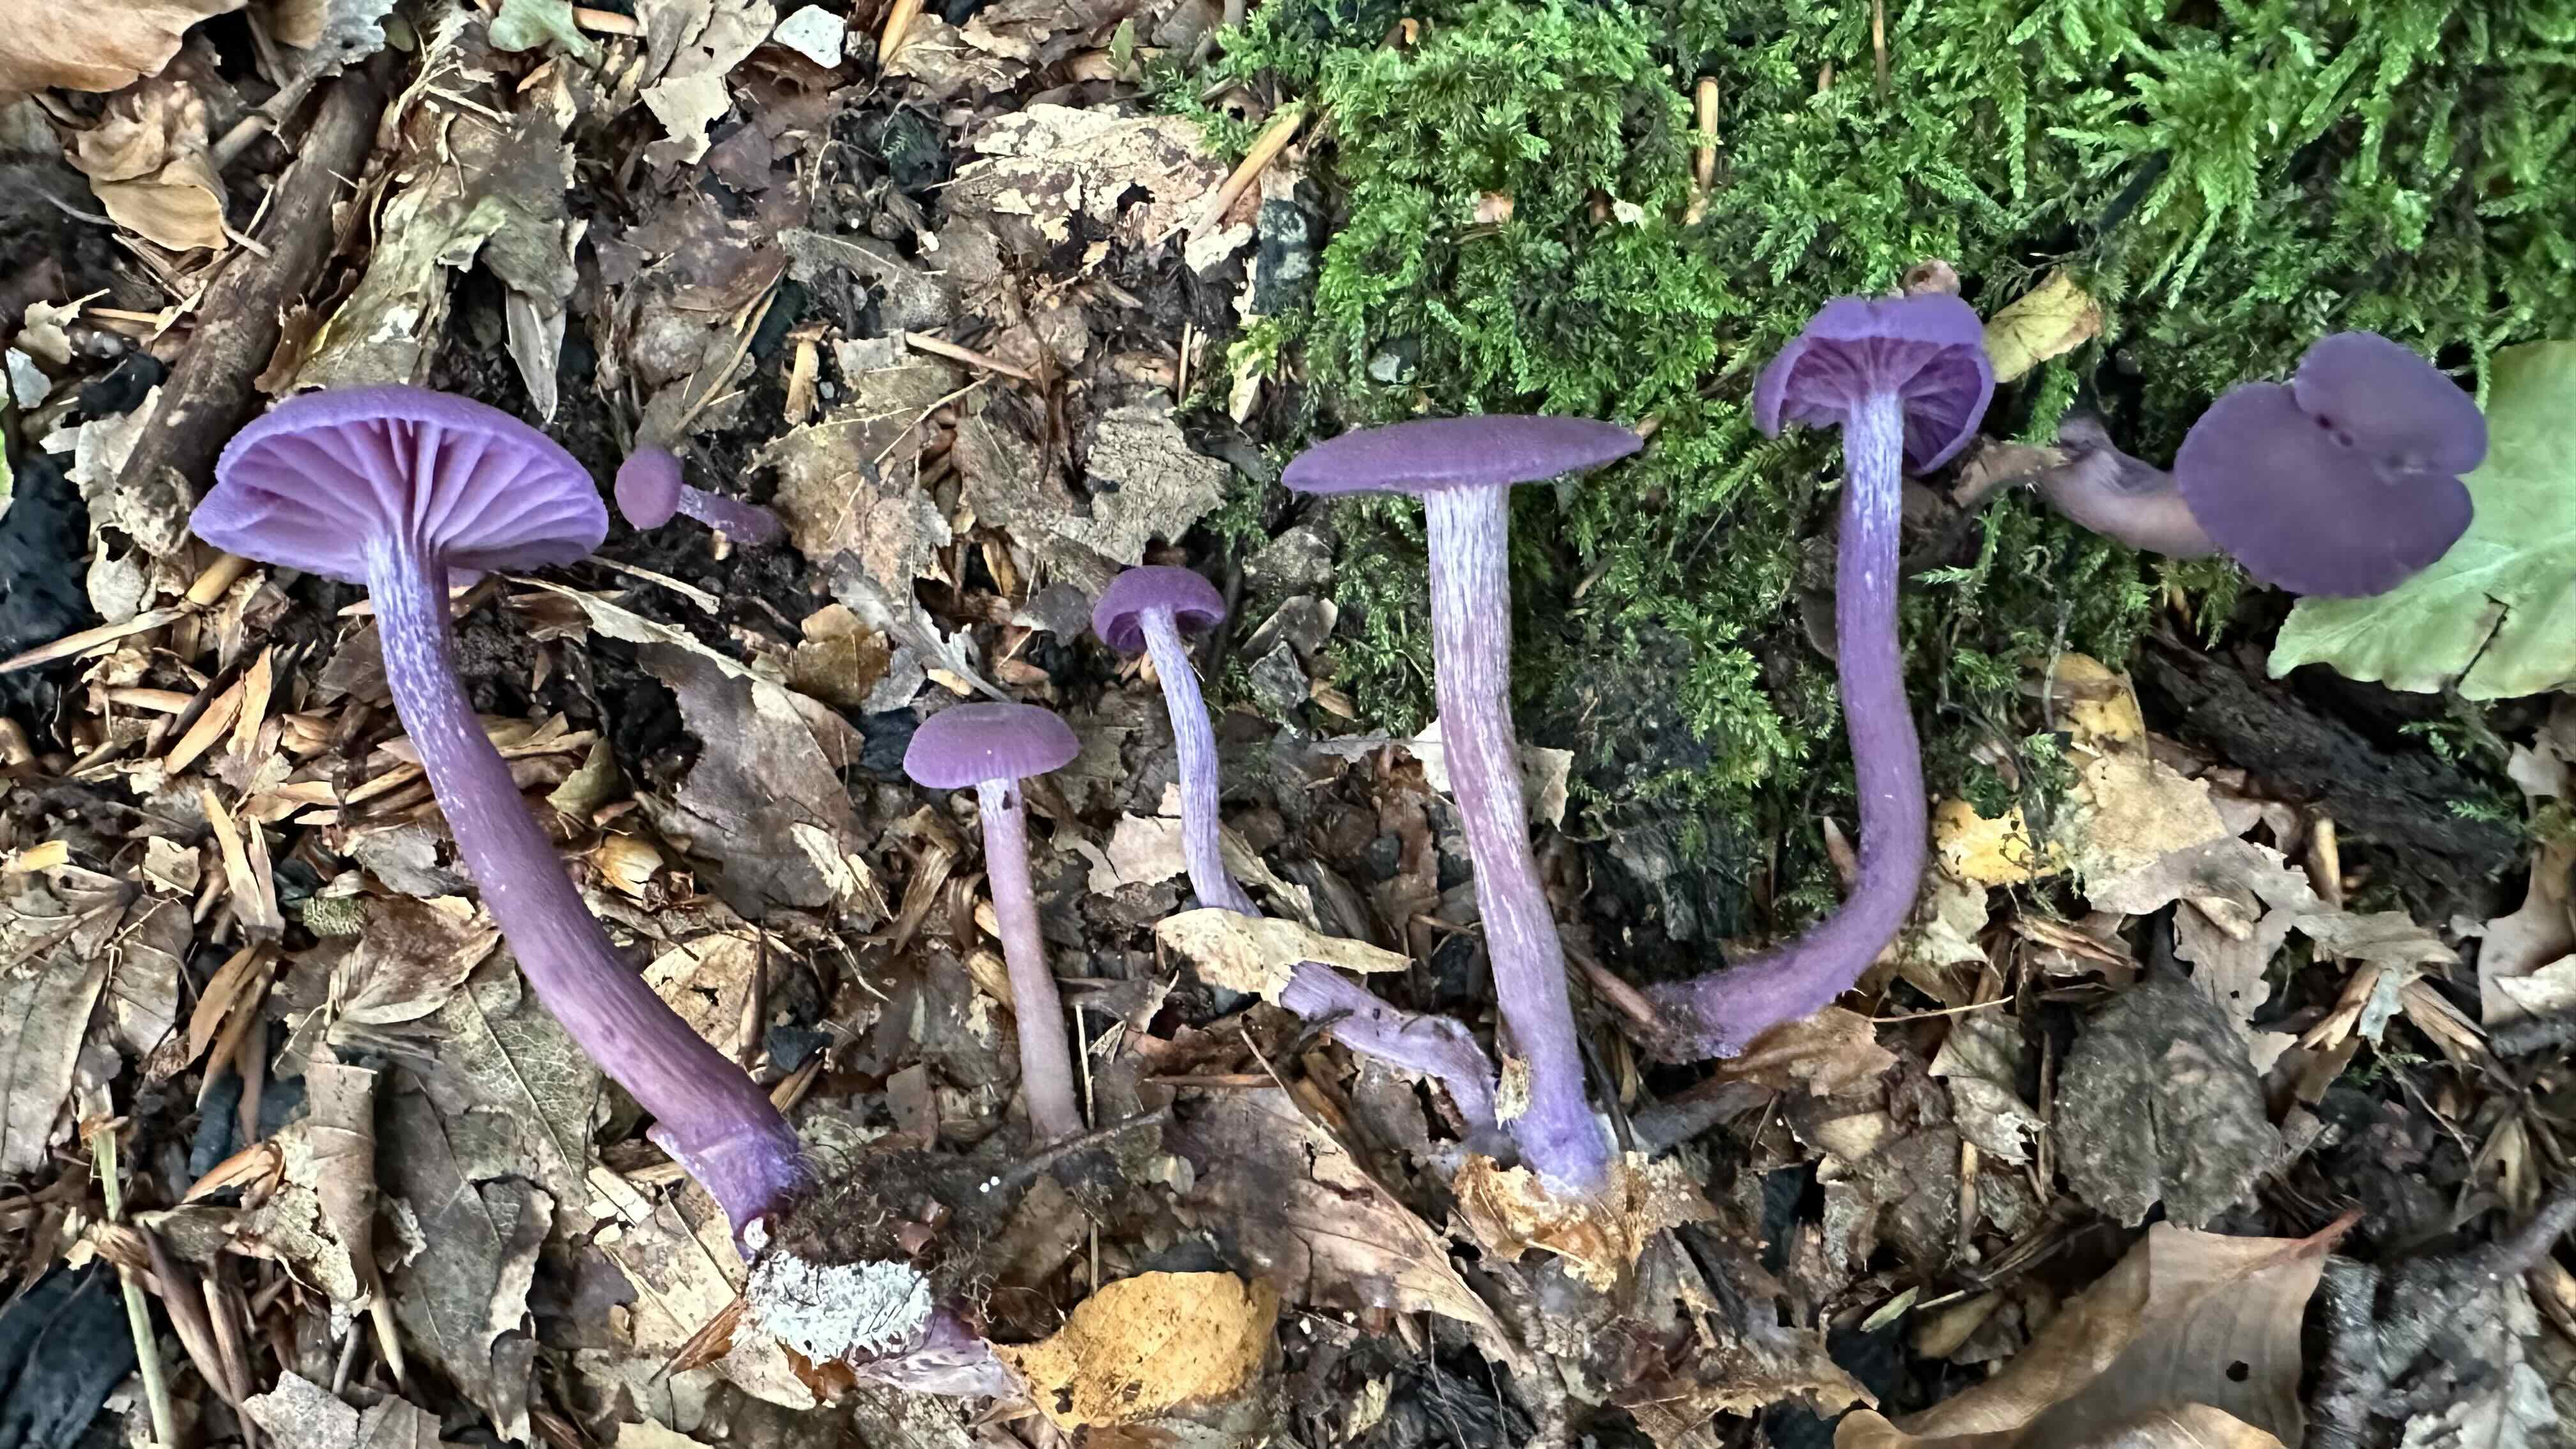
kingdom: Fungi
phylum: Basidiomycota
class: Agaricomycetes
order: Agaricales
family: Hydnangiaceae
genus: Laccaria
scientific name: Laccaria amethystina
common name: violet ametysthat
